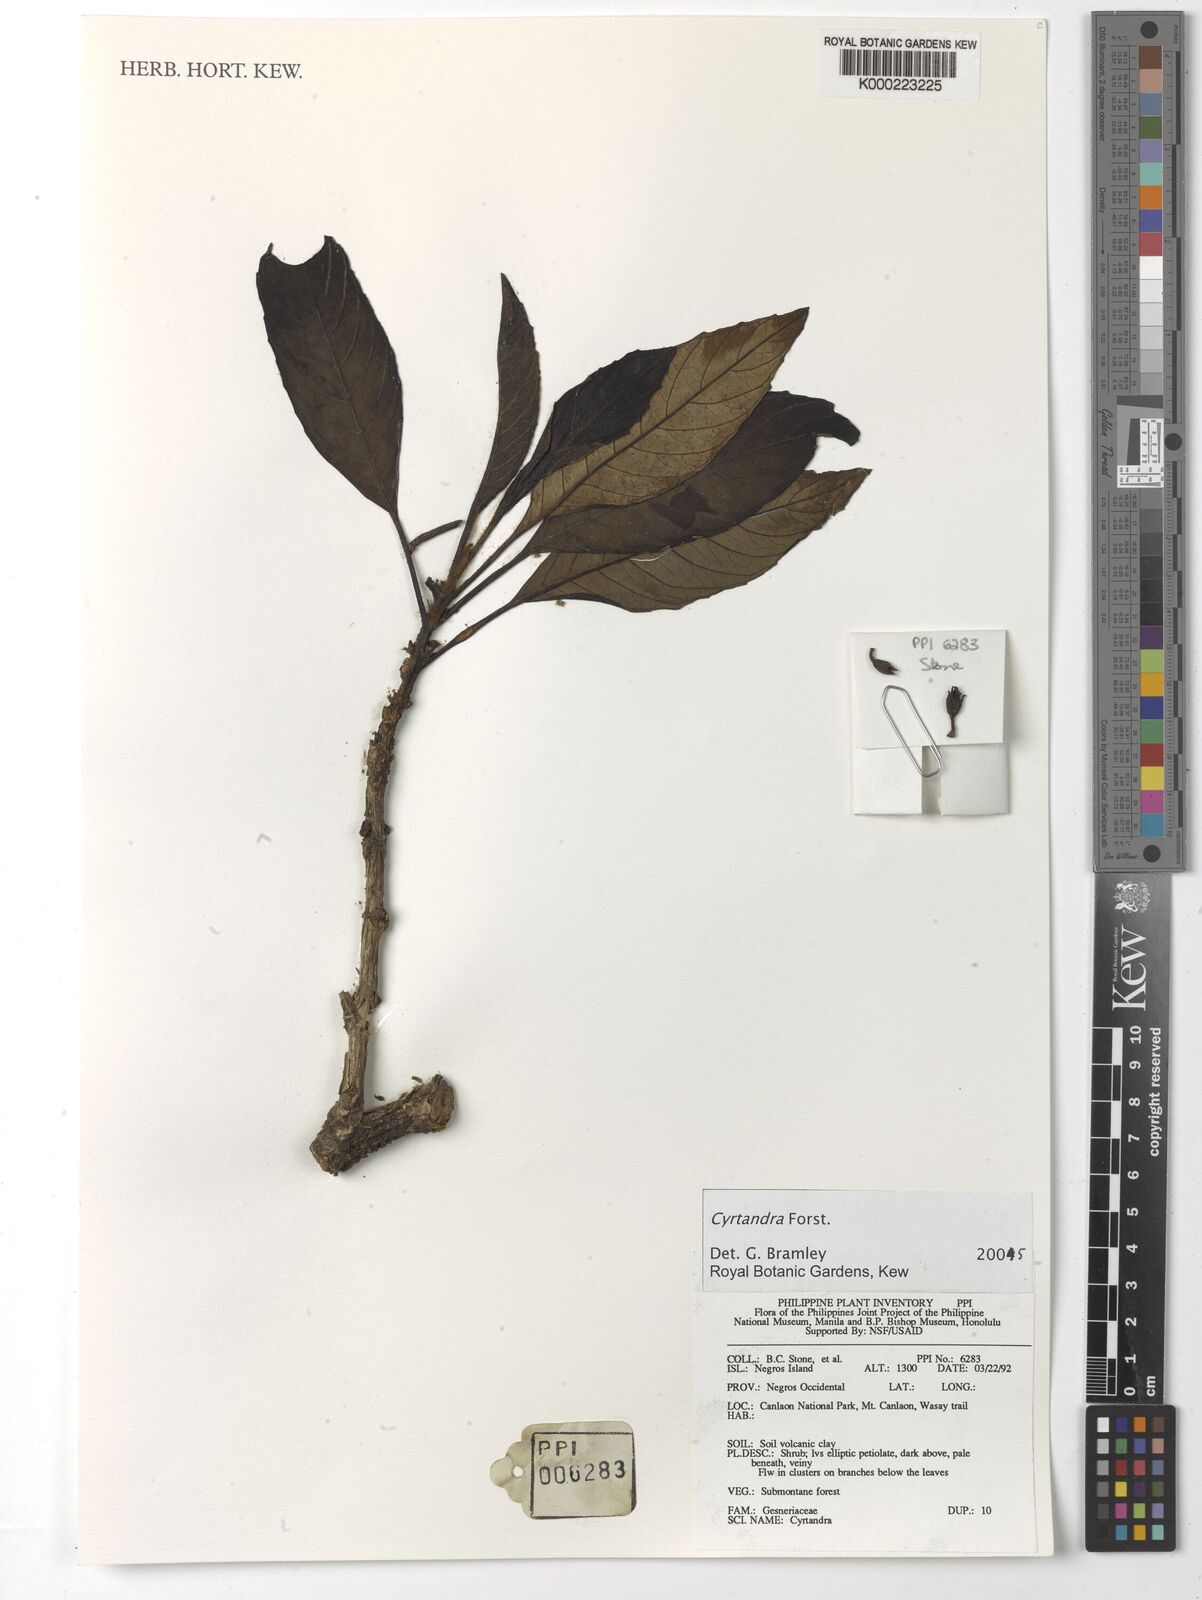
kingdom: Plantae
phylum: Tracheophyta
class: Magnoliopsida
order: Lamiales
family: Gesneriaceae
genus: Cyrtandra
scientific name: Cyrtandra
